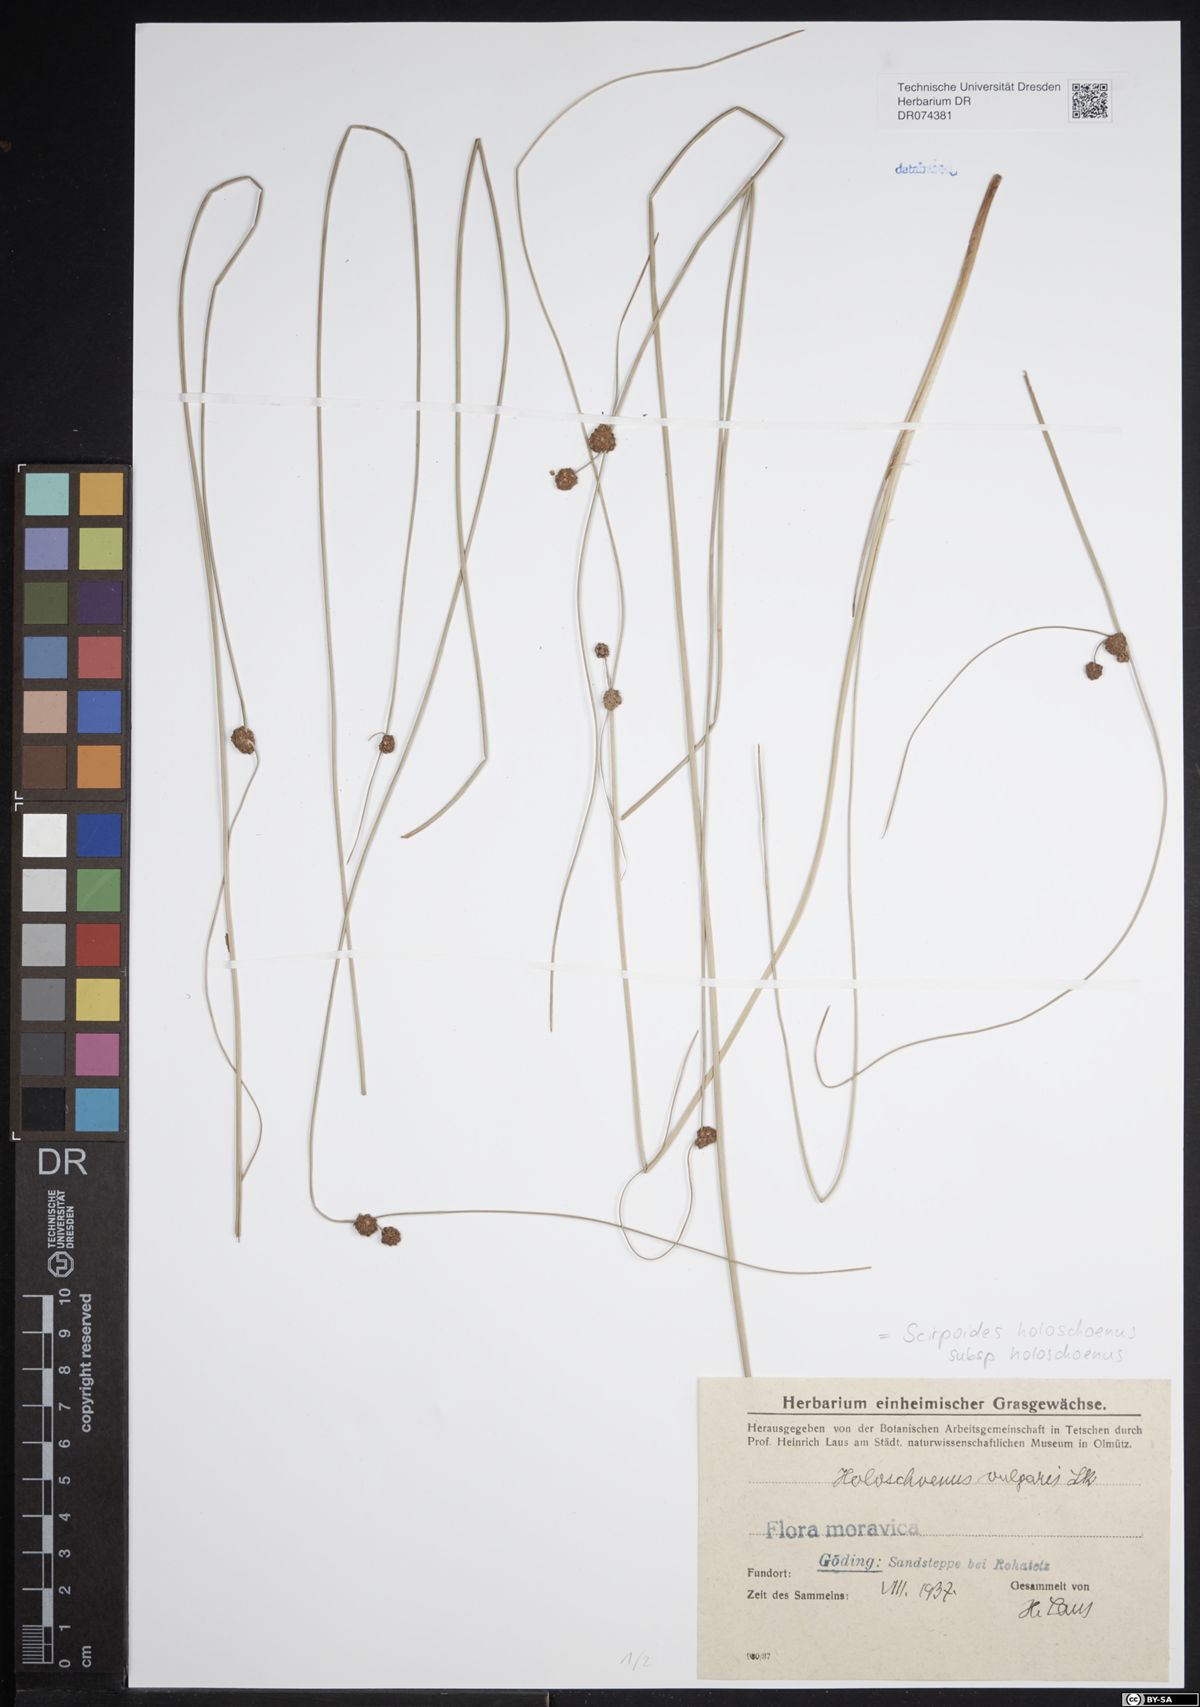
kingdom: Plantae
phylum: Tracheophyta
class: Liliopsida
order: Poales
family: Cyperaceae
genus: Scirpoides
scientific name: Scirpoides holoschoenus
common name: Round-headed club-rush
